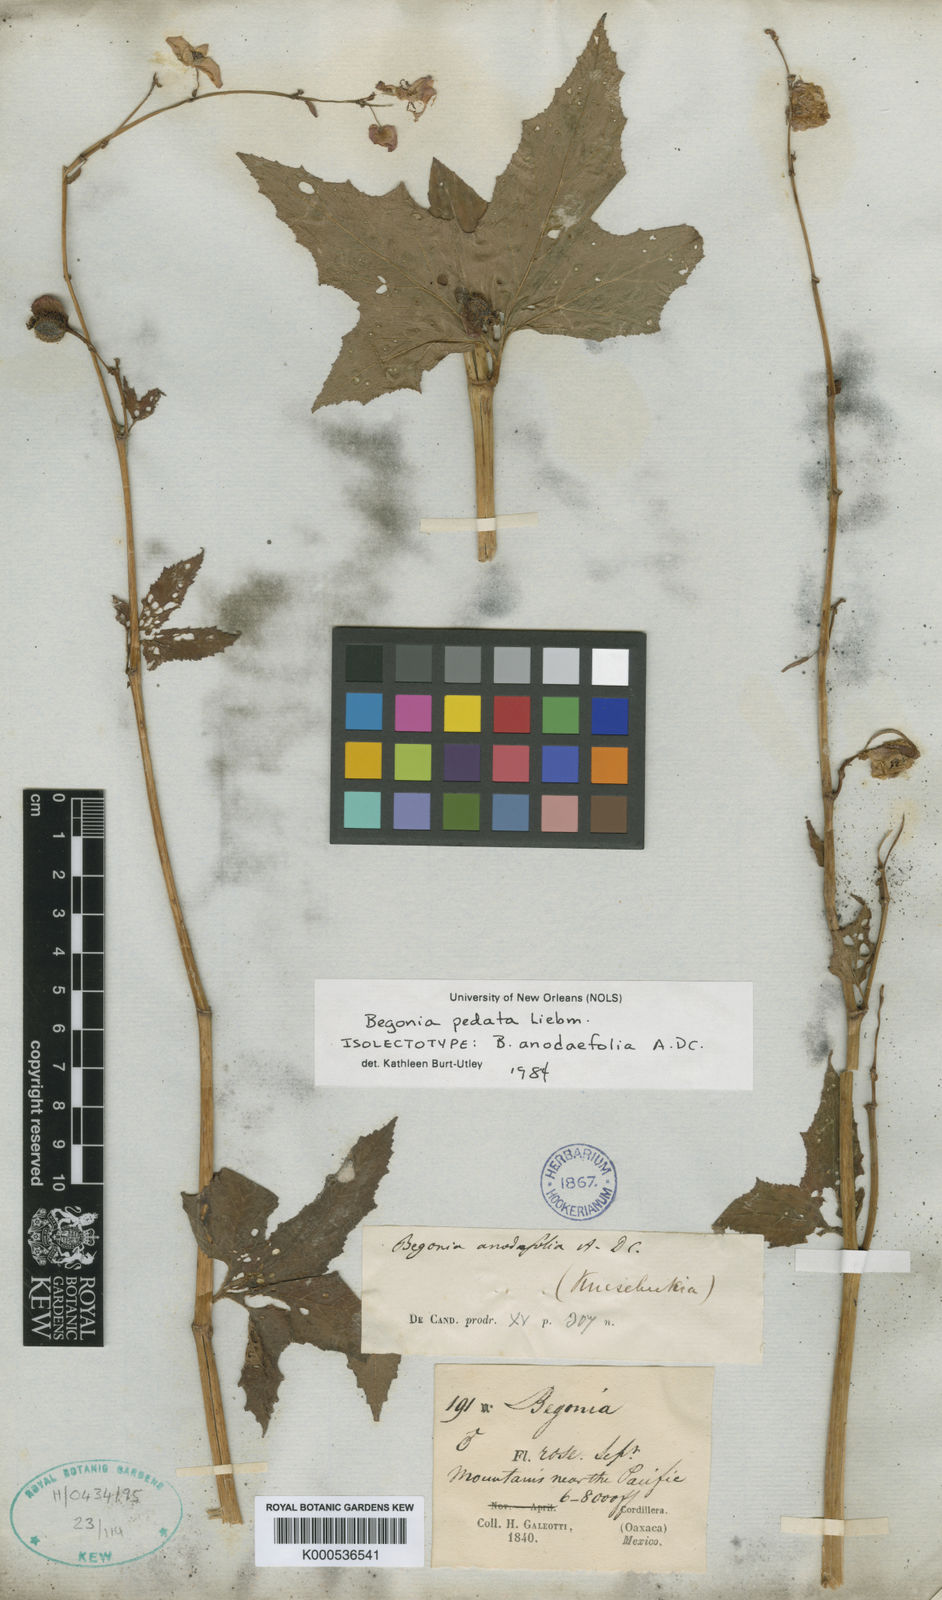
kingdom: Plantae
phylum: Tracheophyta
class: Magnoliopsida
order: Cucurbitales
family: Begoniaceae
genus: Begonia
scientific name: Begonia pedata
